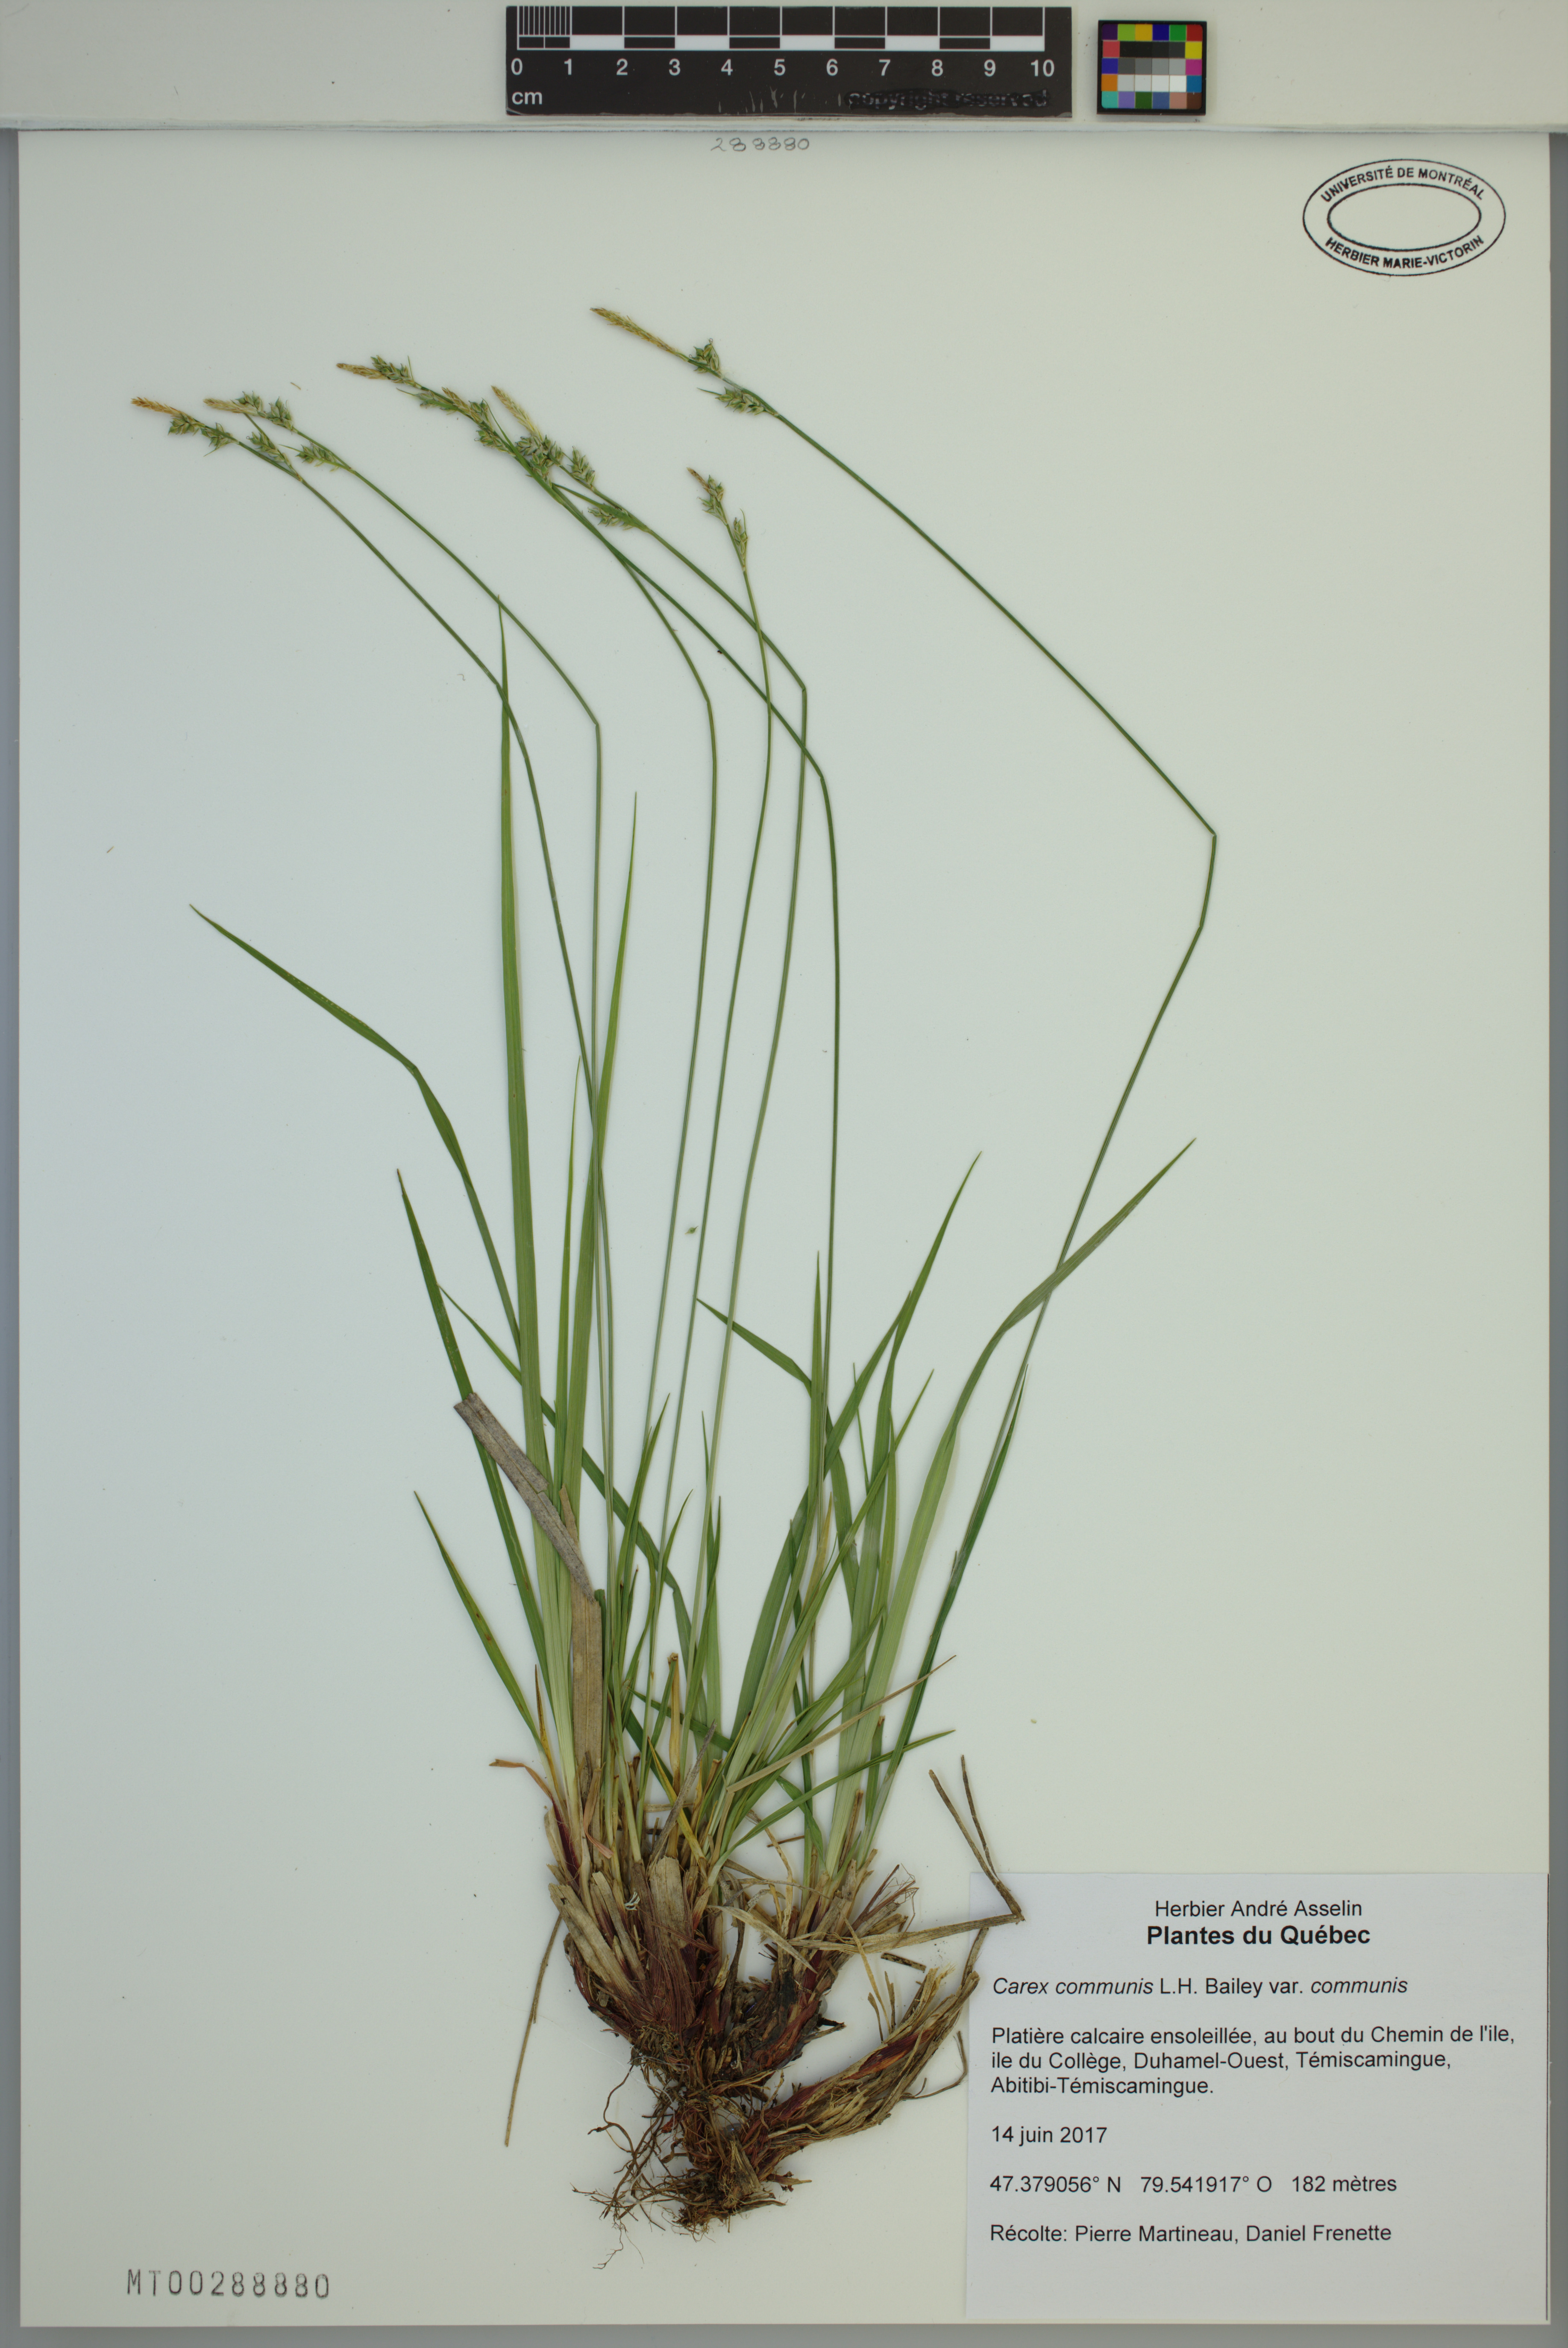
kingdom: Plantae
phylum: Tracheophyta
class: Liliopsida
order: Poales
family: Cyperaceae
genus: Carex
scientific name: Carex communis
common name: Colonial oak sedge
